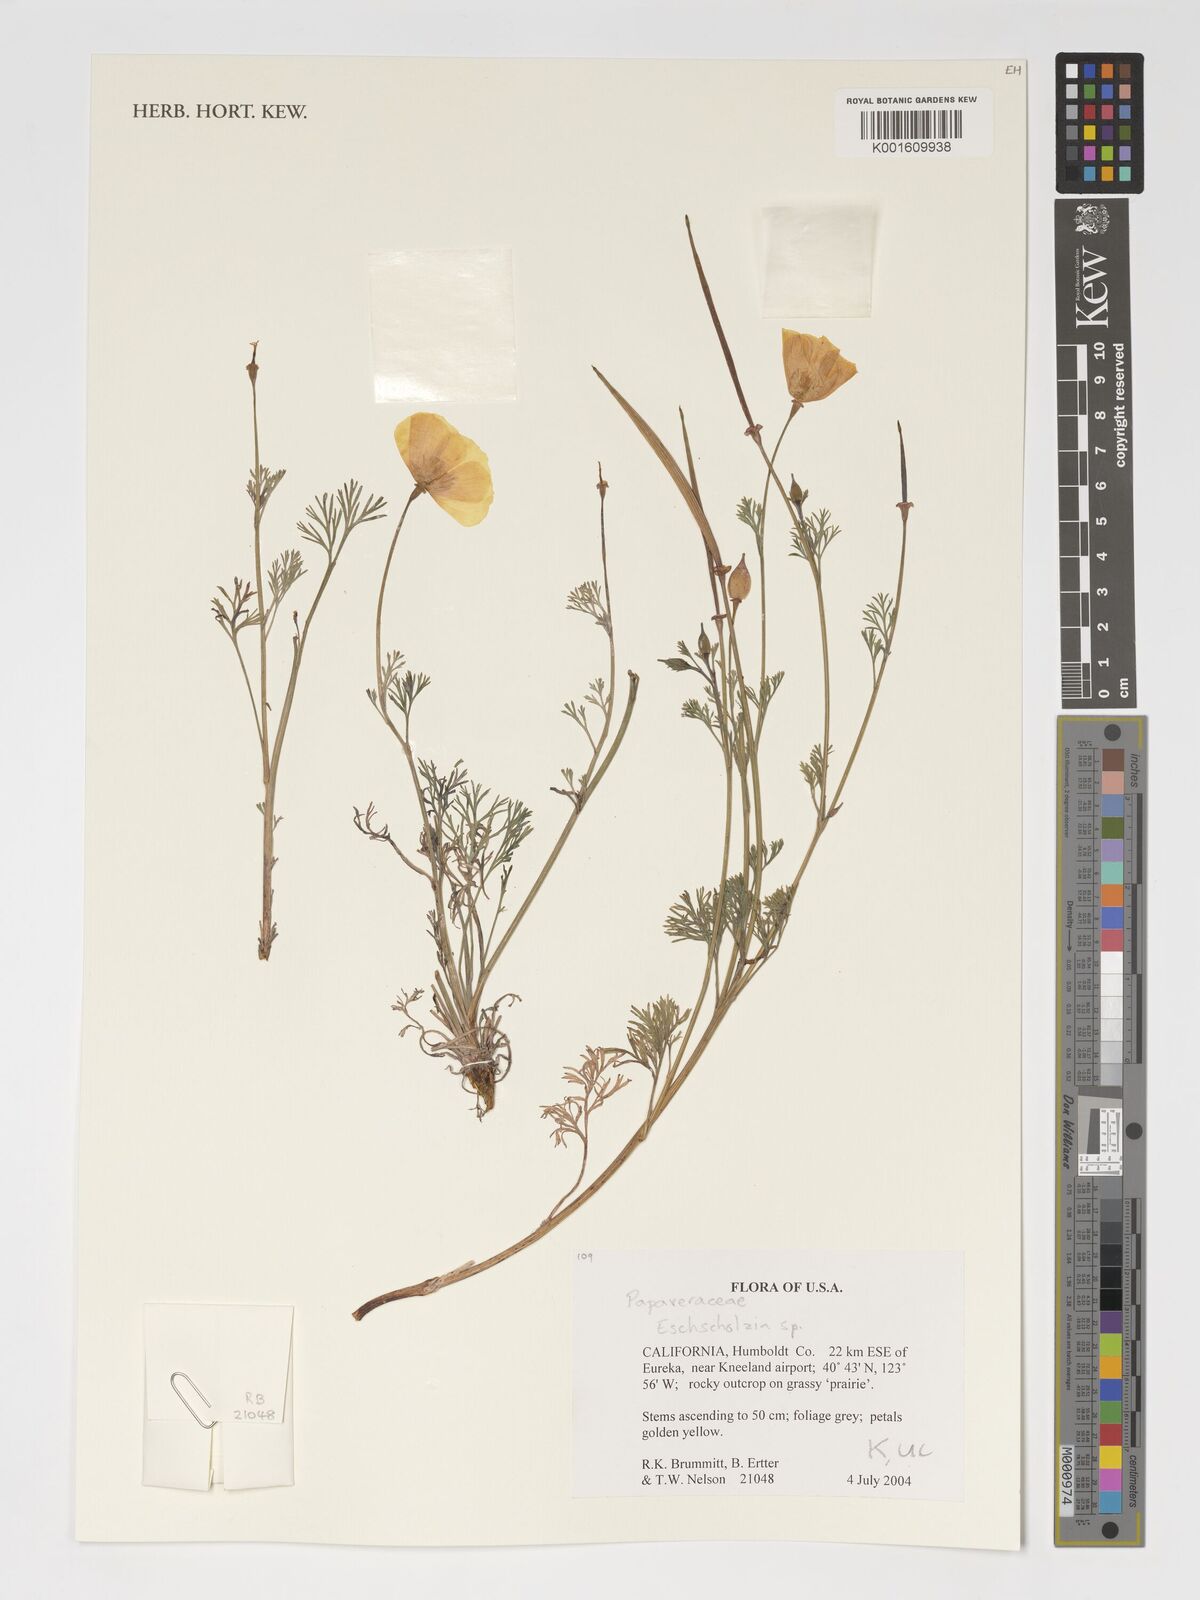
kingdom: Plantae
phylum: Tracheophyta
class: Magnoliopsida
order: Ranunculales
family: Papaveraceae
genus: Eschscholzia
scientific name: Eschscholzia
